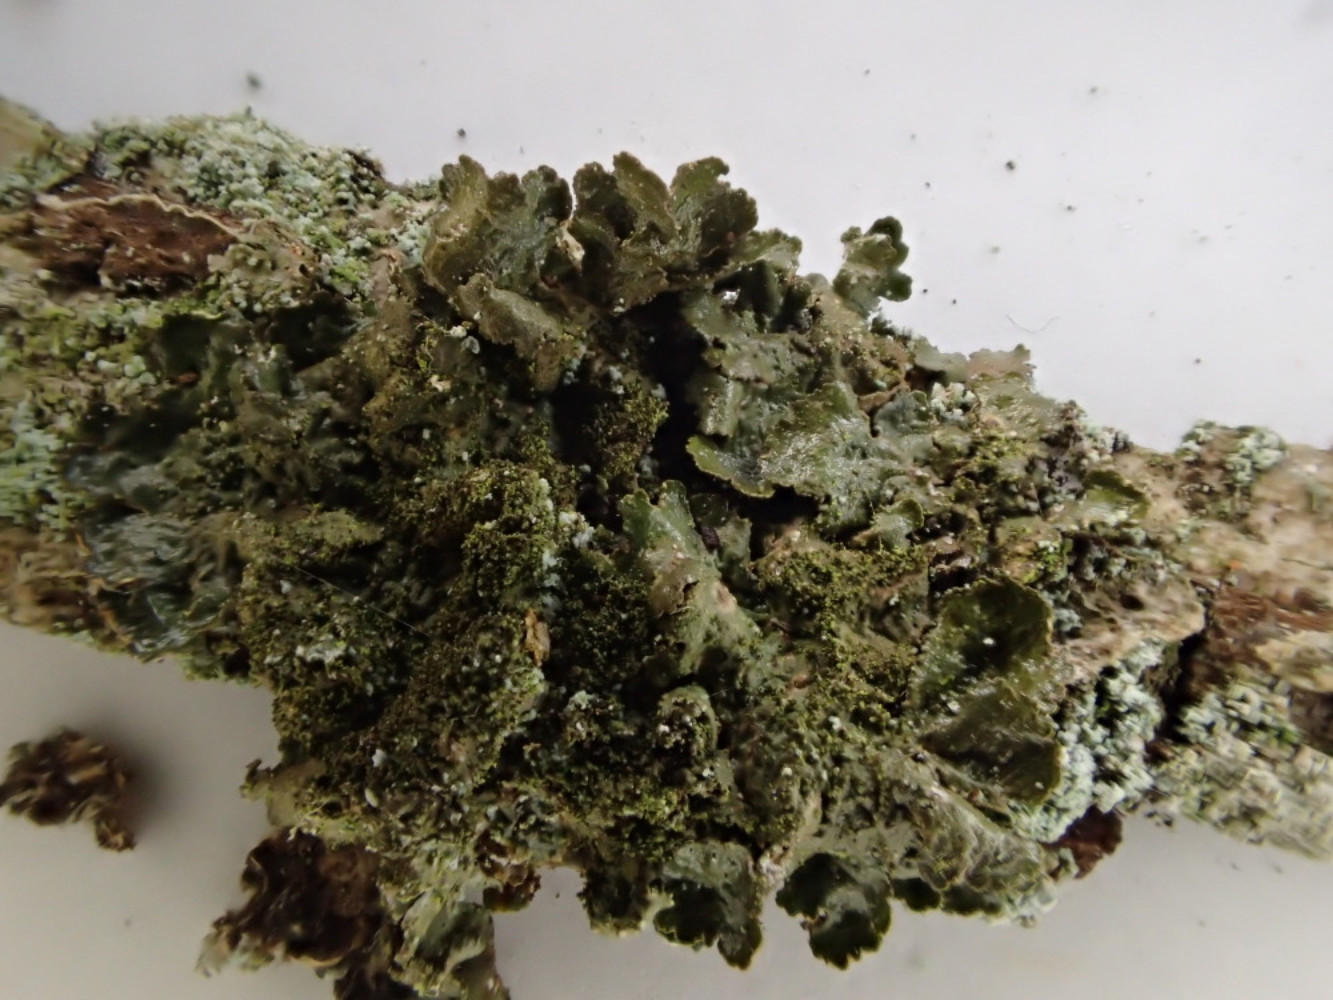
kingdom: Fungi
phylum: Ascomycota
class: Lecanoromycetes
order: Lecanorales
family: Parmeliaceae
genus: Melanelixia
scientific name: Melanelixia glabratula
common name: glinsende skållav
